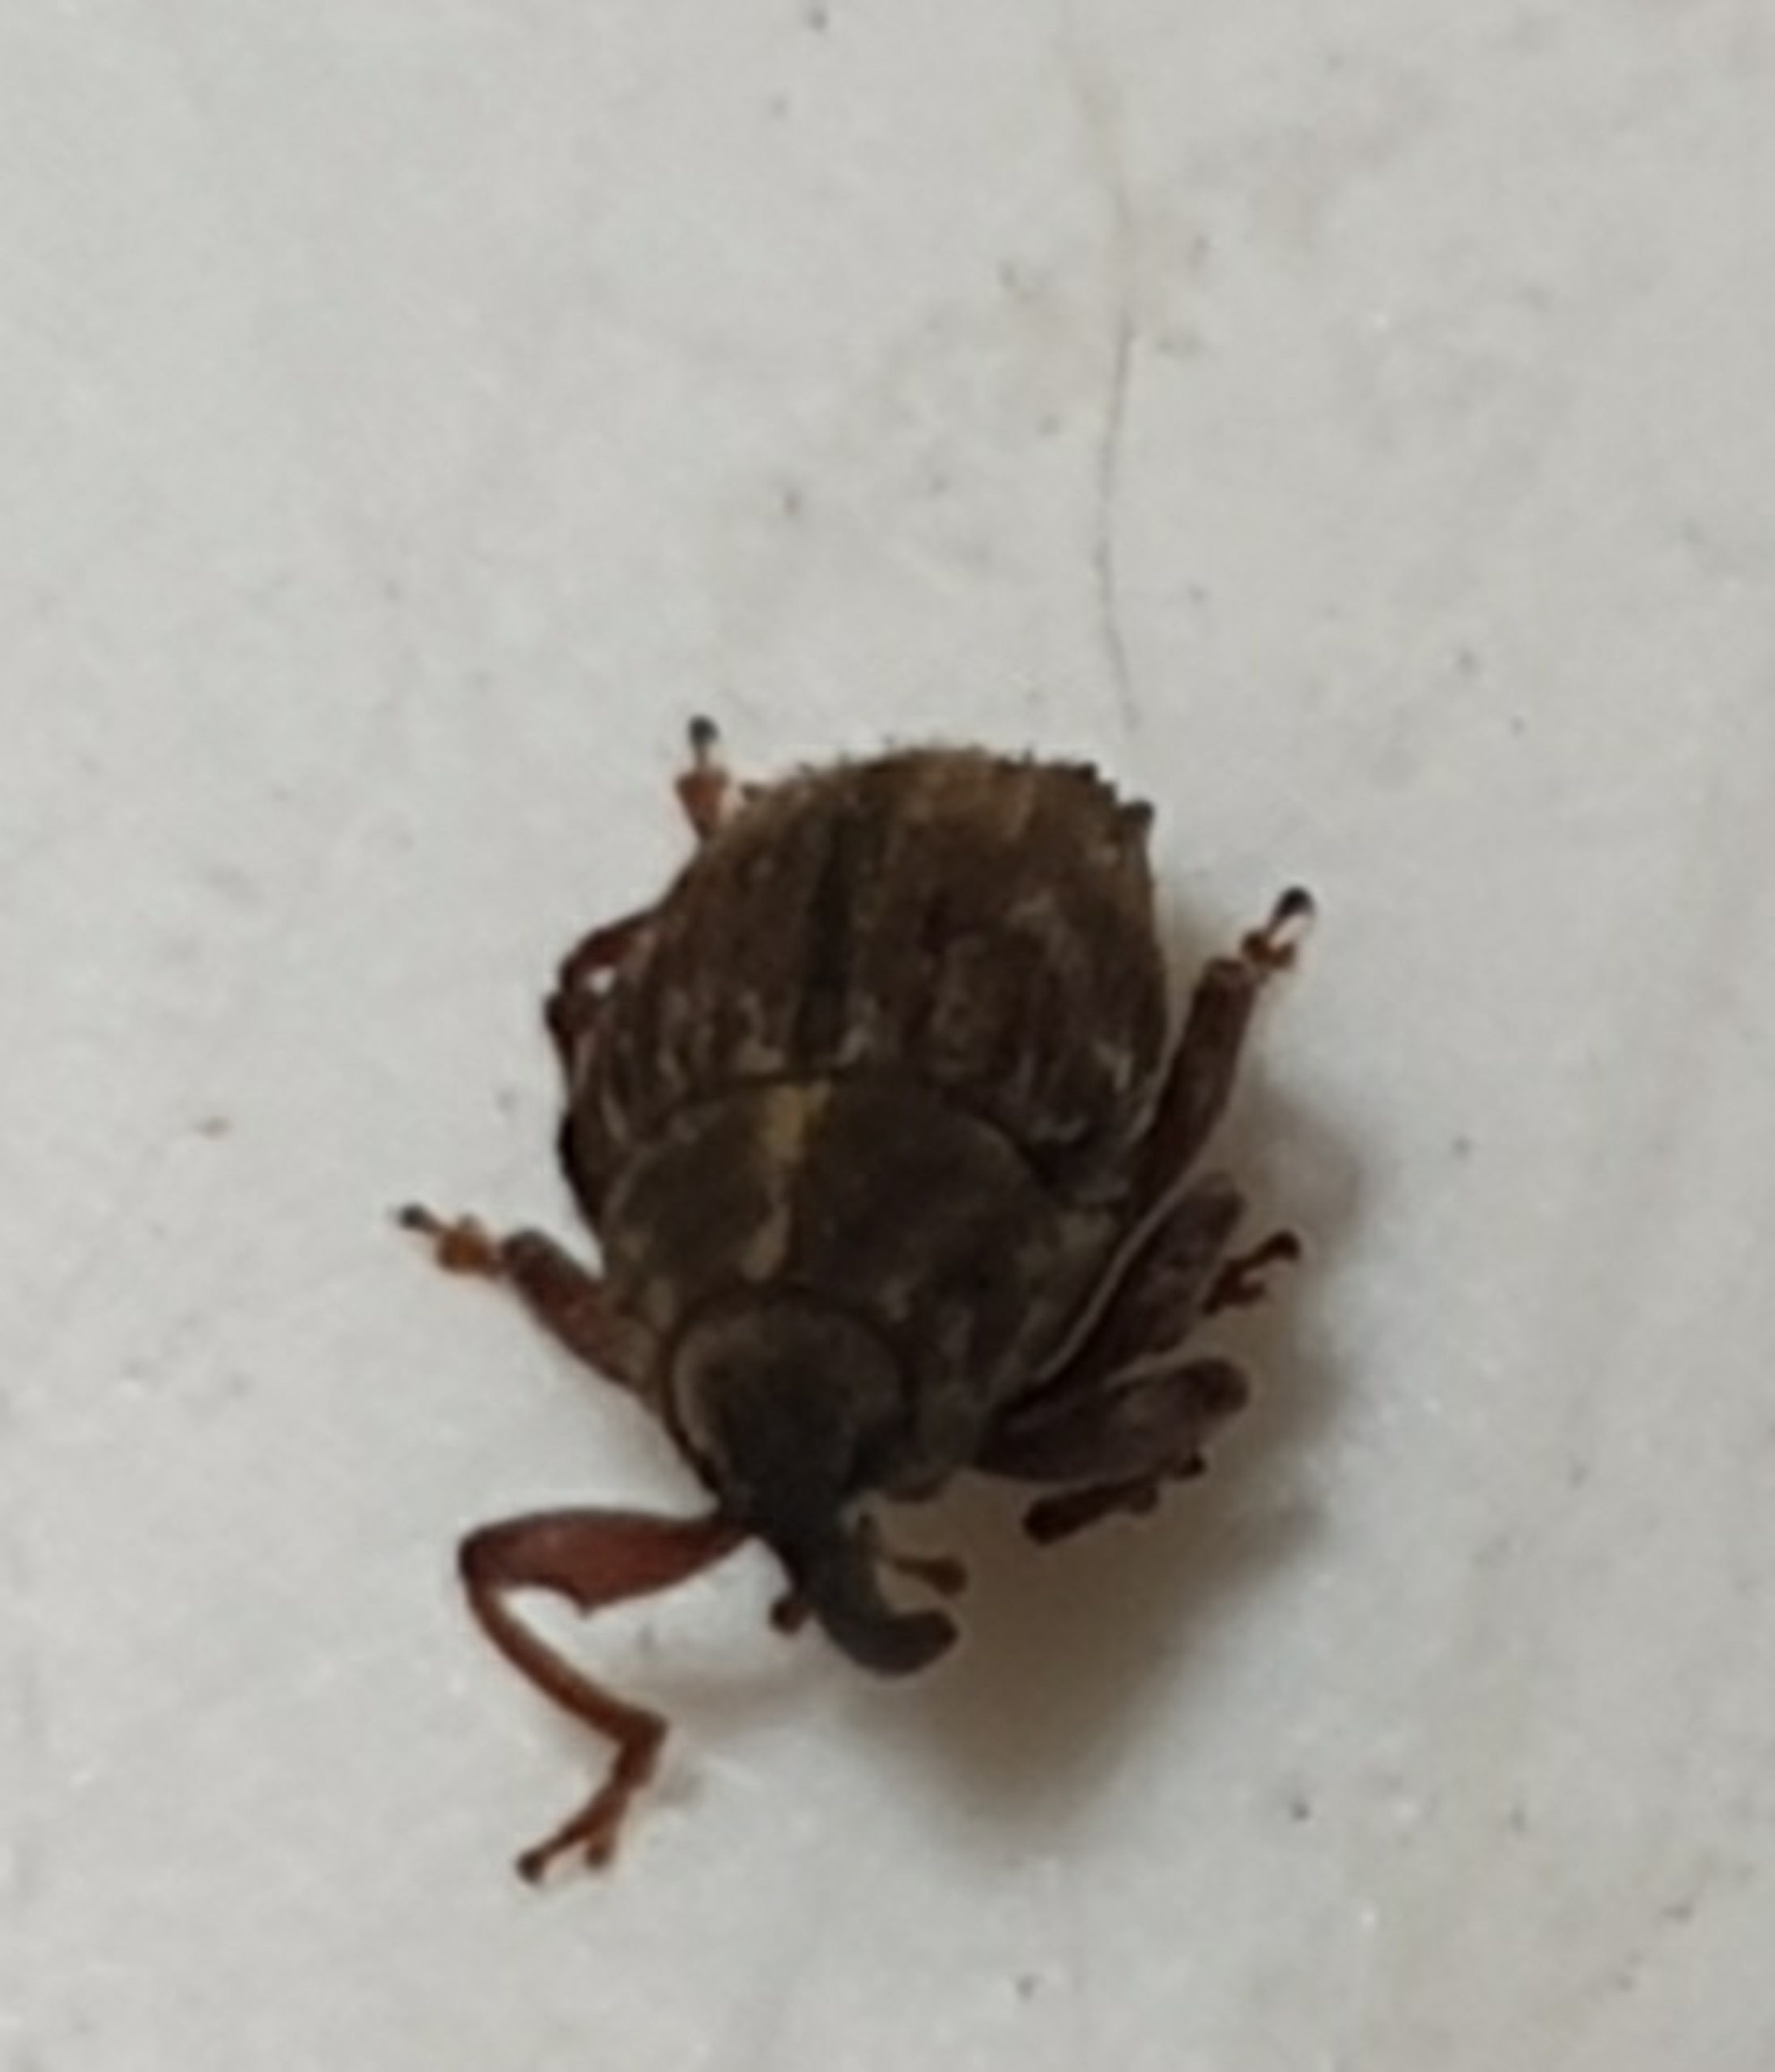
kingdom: Animalia
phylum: Arthropoda
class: Insecta
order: Coleoptera
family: Curculionidae
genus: Trichosirocalus
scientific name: Trichosirocalus troglodytes
